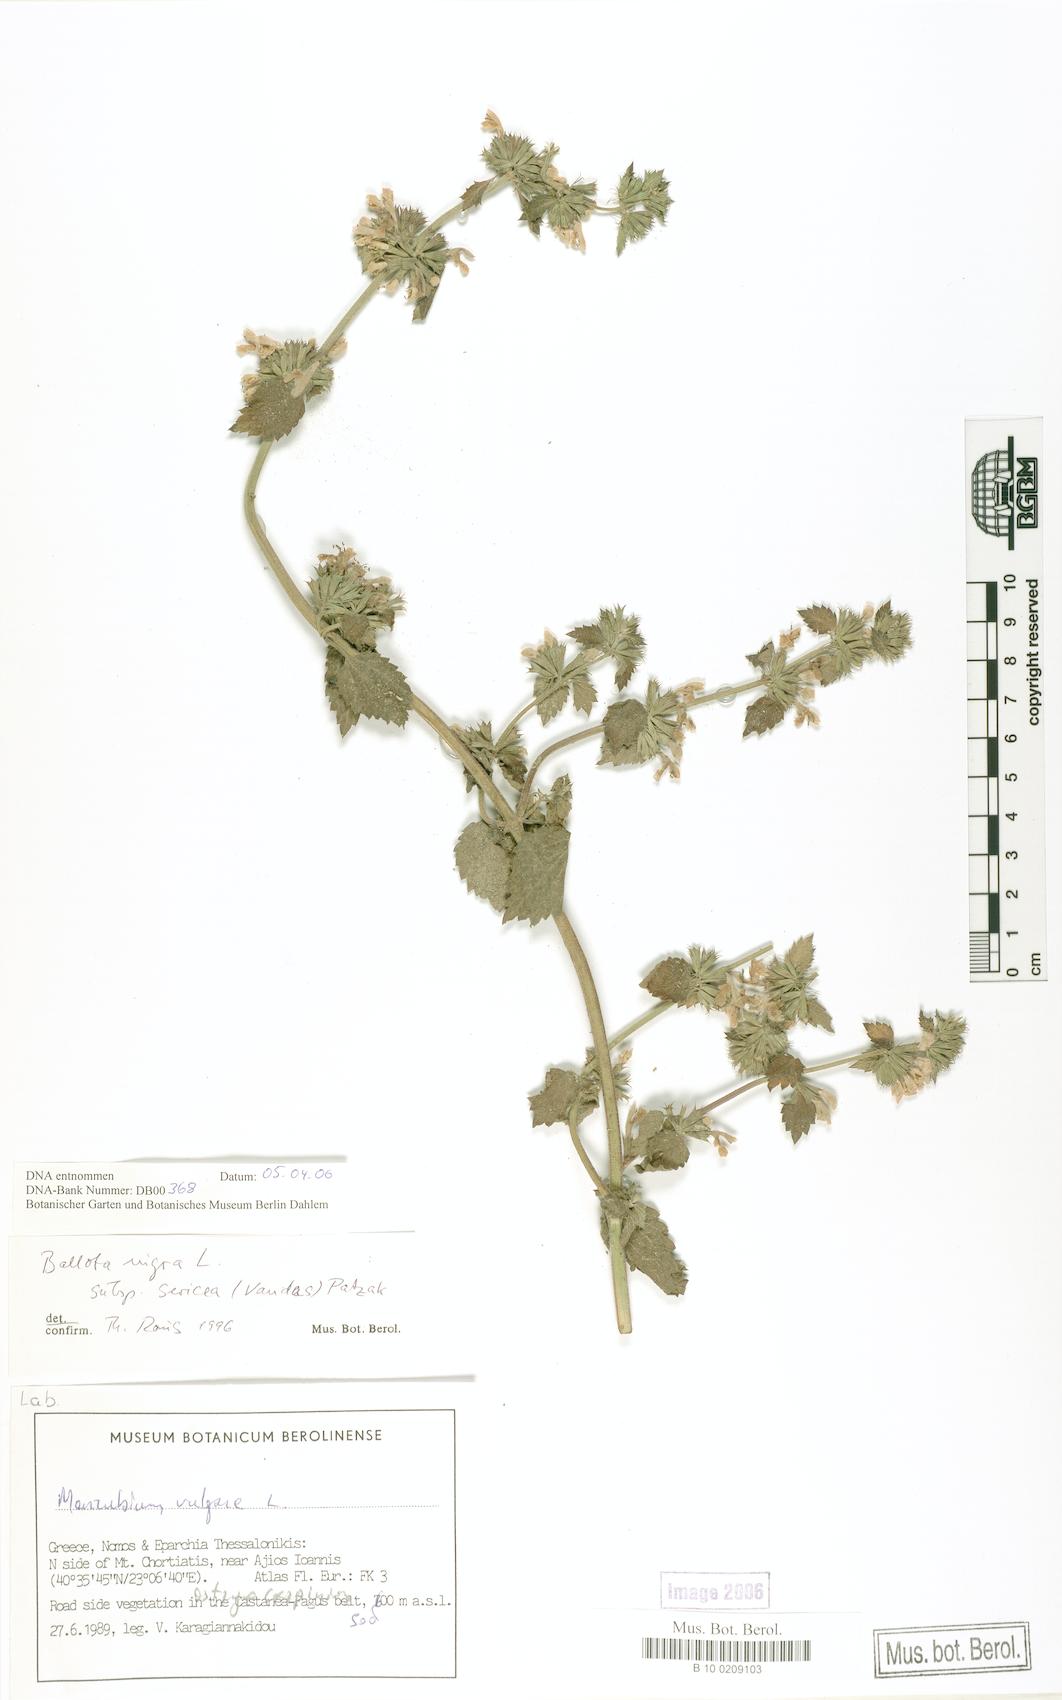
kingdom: Plantae
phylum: Tracheophyta
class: Magnoliopsida
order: Lamiales
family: Lamiaceae
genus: Ballota
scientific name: Ballota nigra
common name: Black horehound
